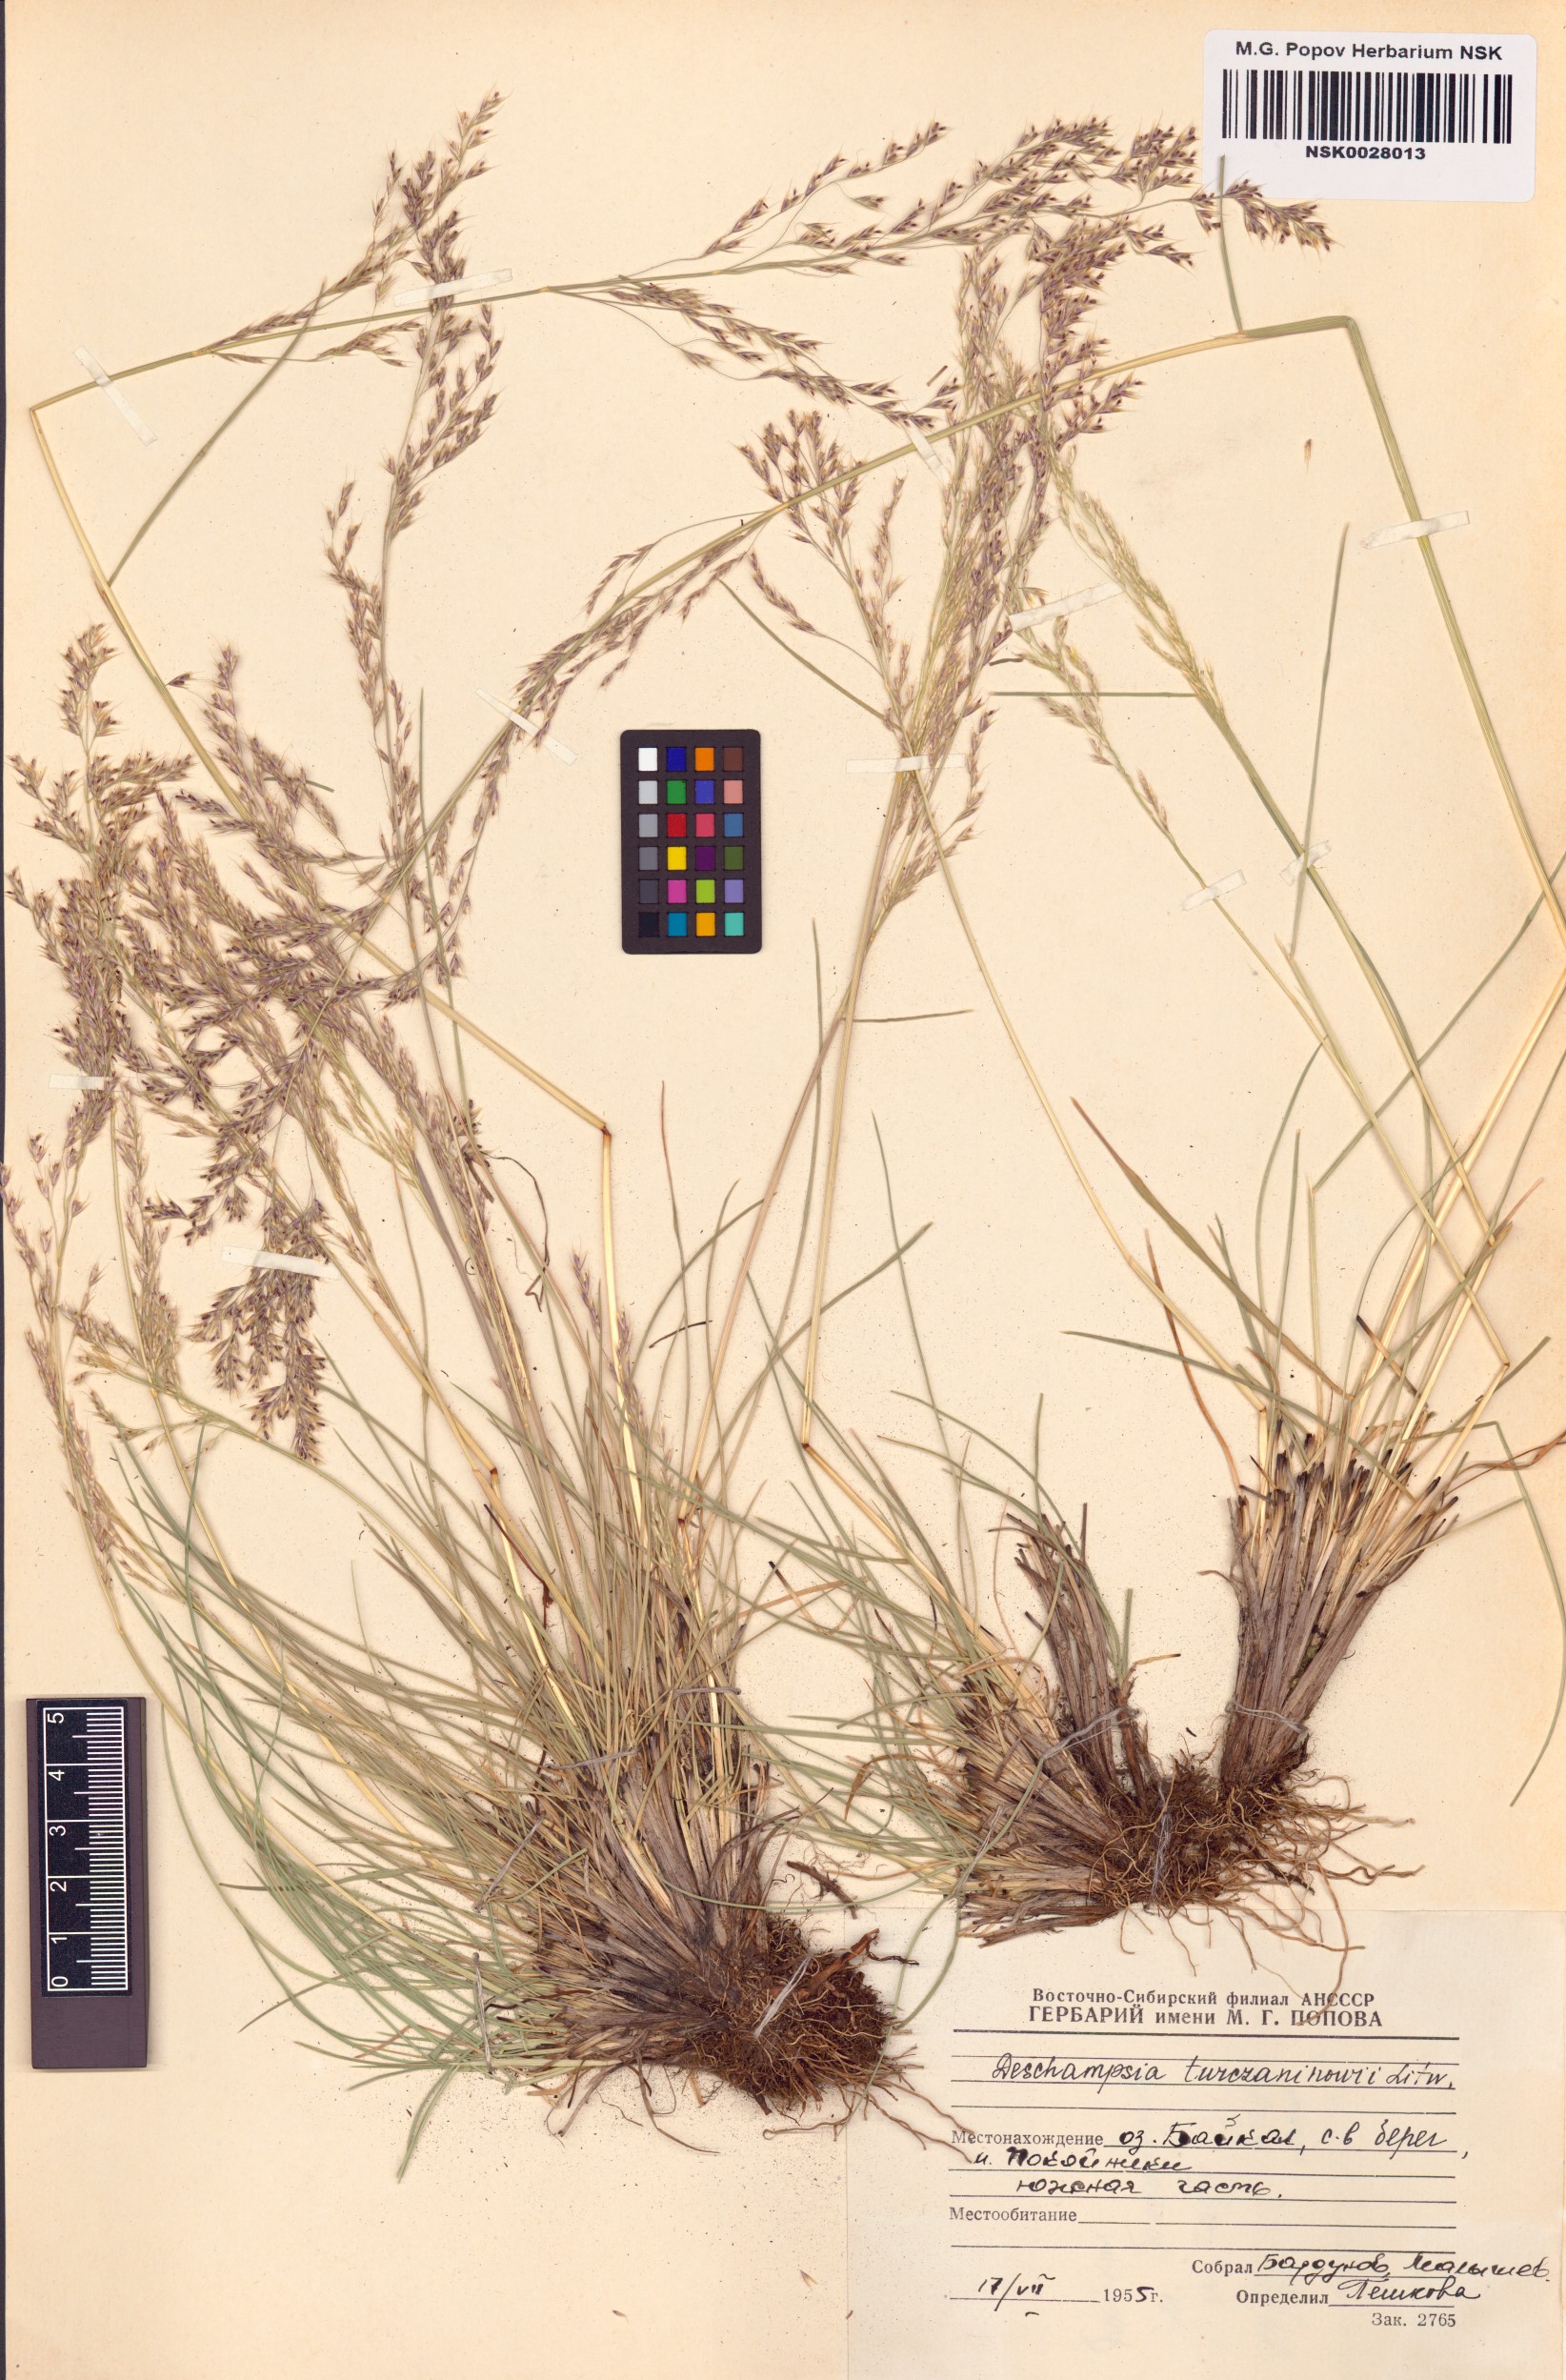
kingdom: Plantae
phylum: Tracheophyta
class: Liliopsida
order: Poales
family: Poaceae
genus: Deschampsia
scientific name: Deschampsia cespitosa
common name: Tufted hair-grass
